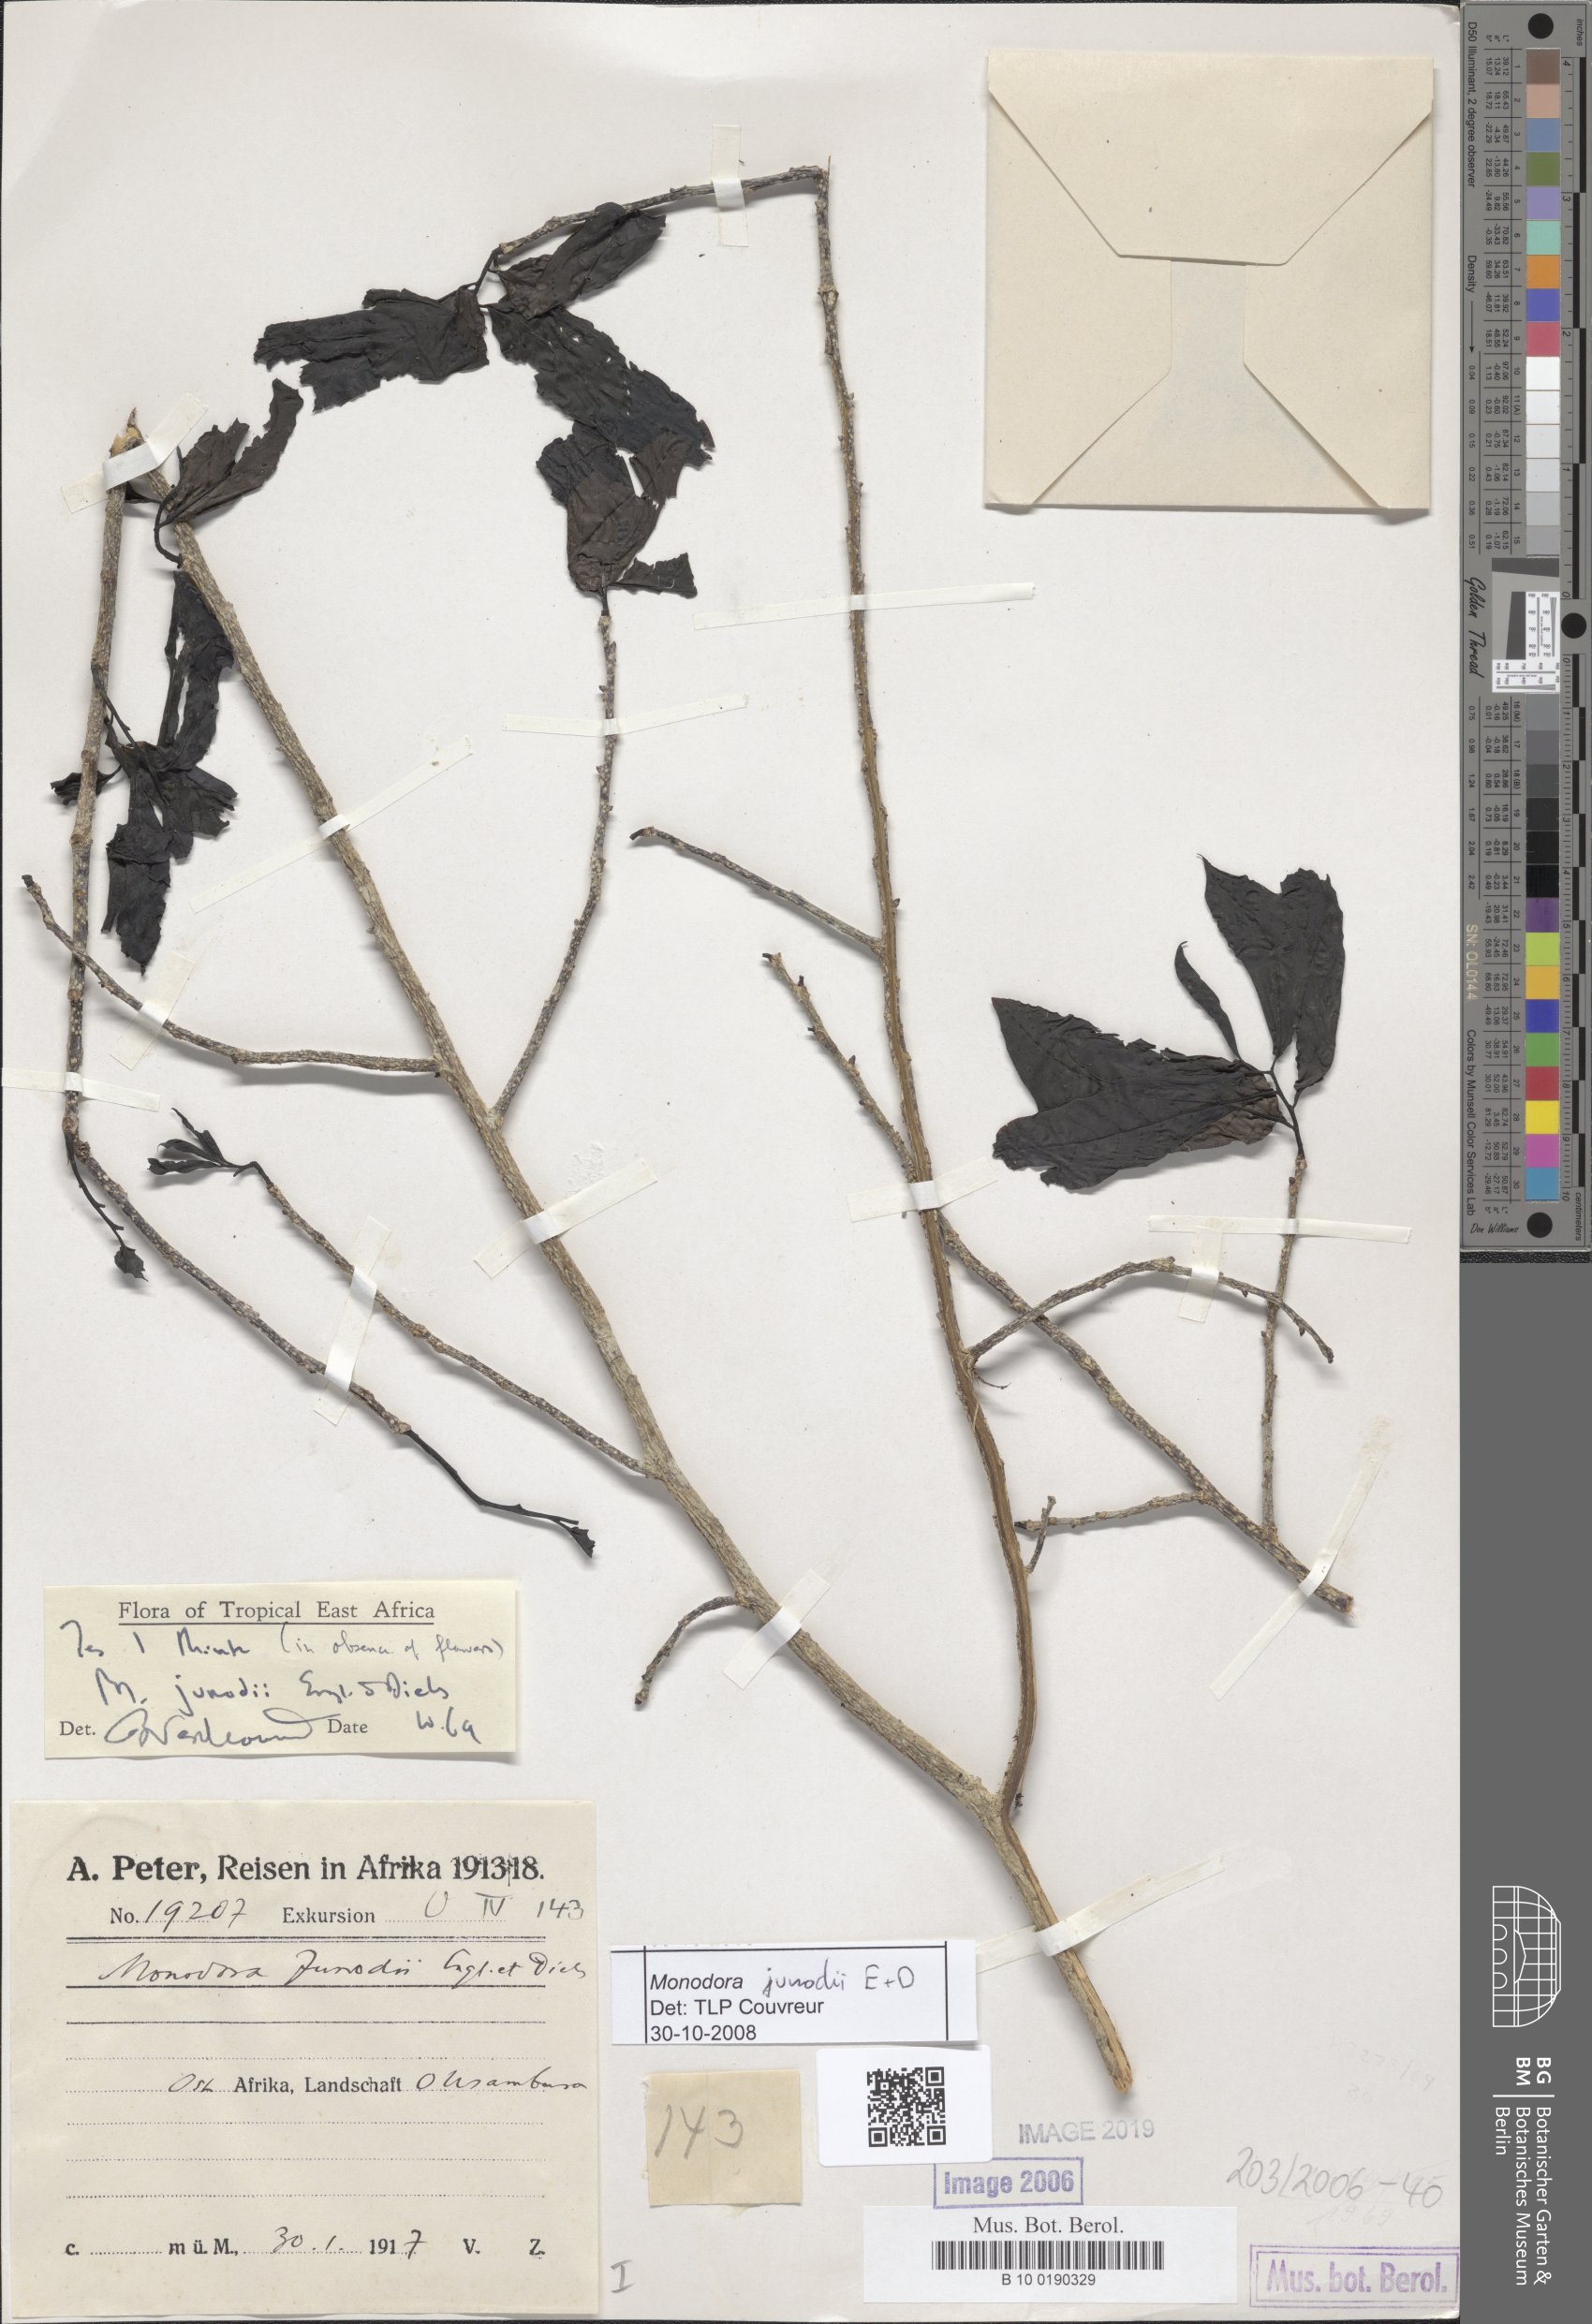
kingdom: Plantae
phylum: Tracheophyta
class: Magnoliopsida
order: Magnoliales
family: Annonaceae
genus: Monodora
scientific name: Monodora junodii
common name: Green-apple
